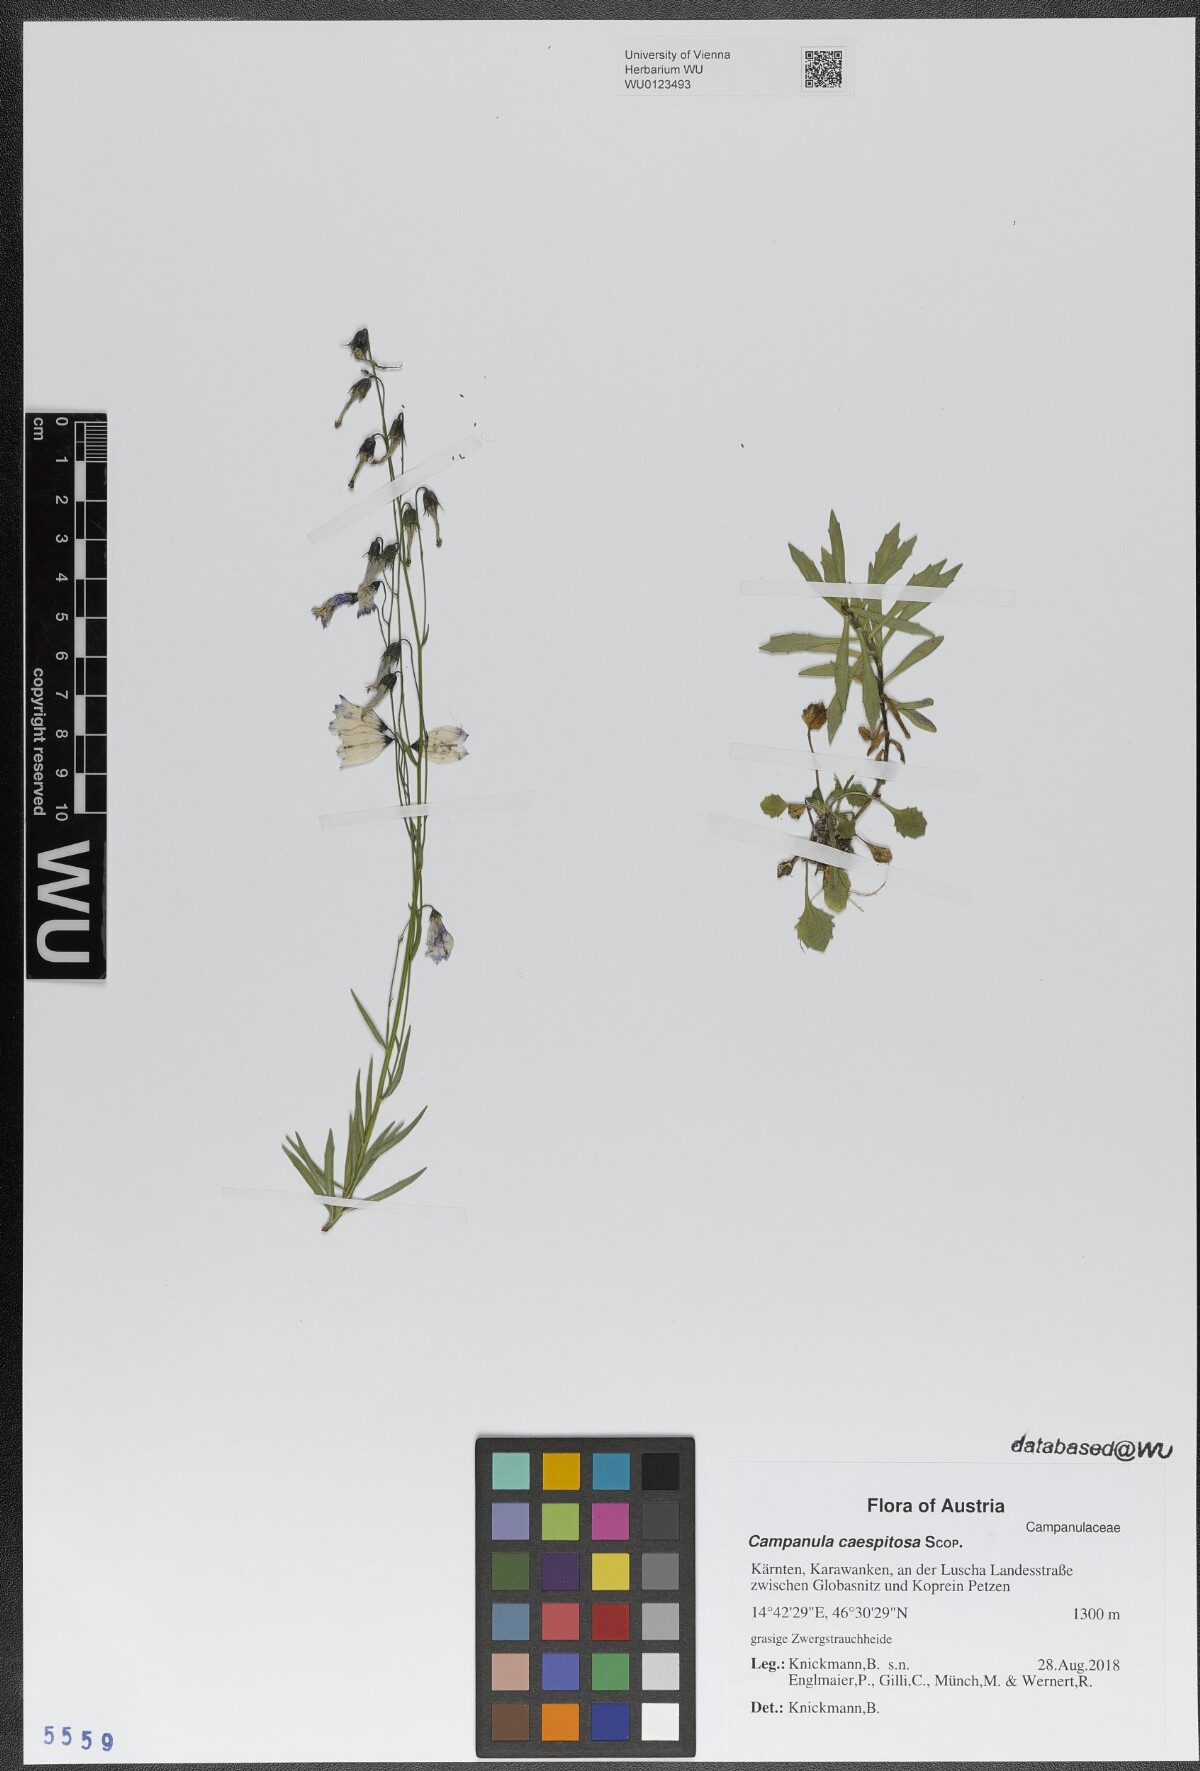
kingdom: Plantae
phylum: Tracheophyta
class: Magnoliopsida
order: Asterales
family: Campanulaceae
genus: Campanula
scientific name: Campanula caespitosa
